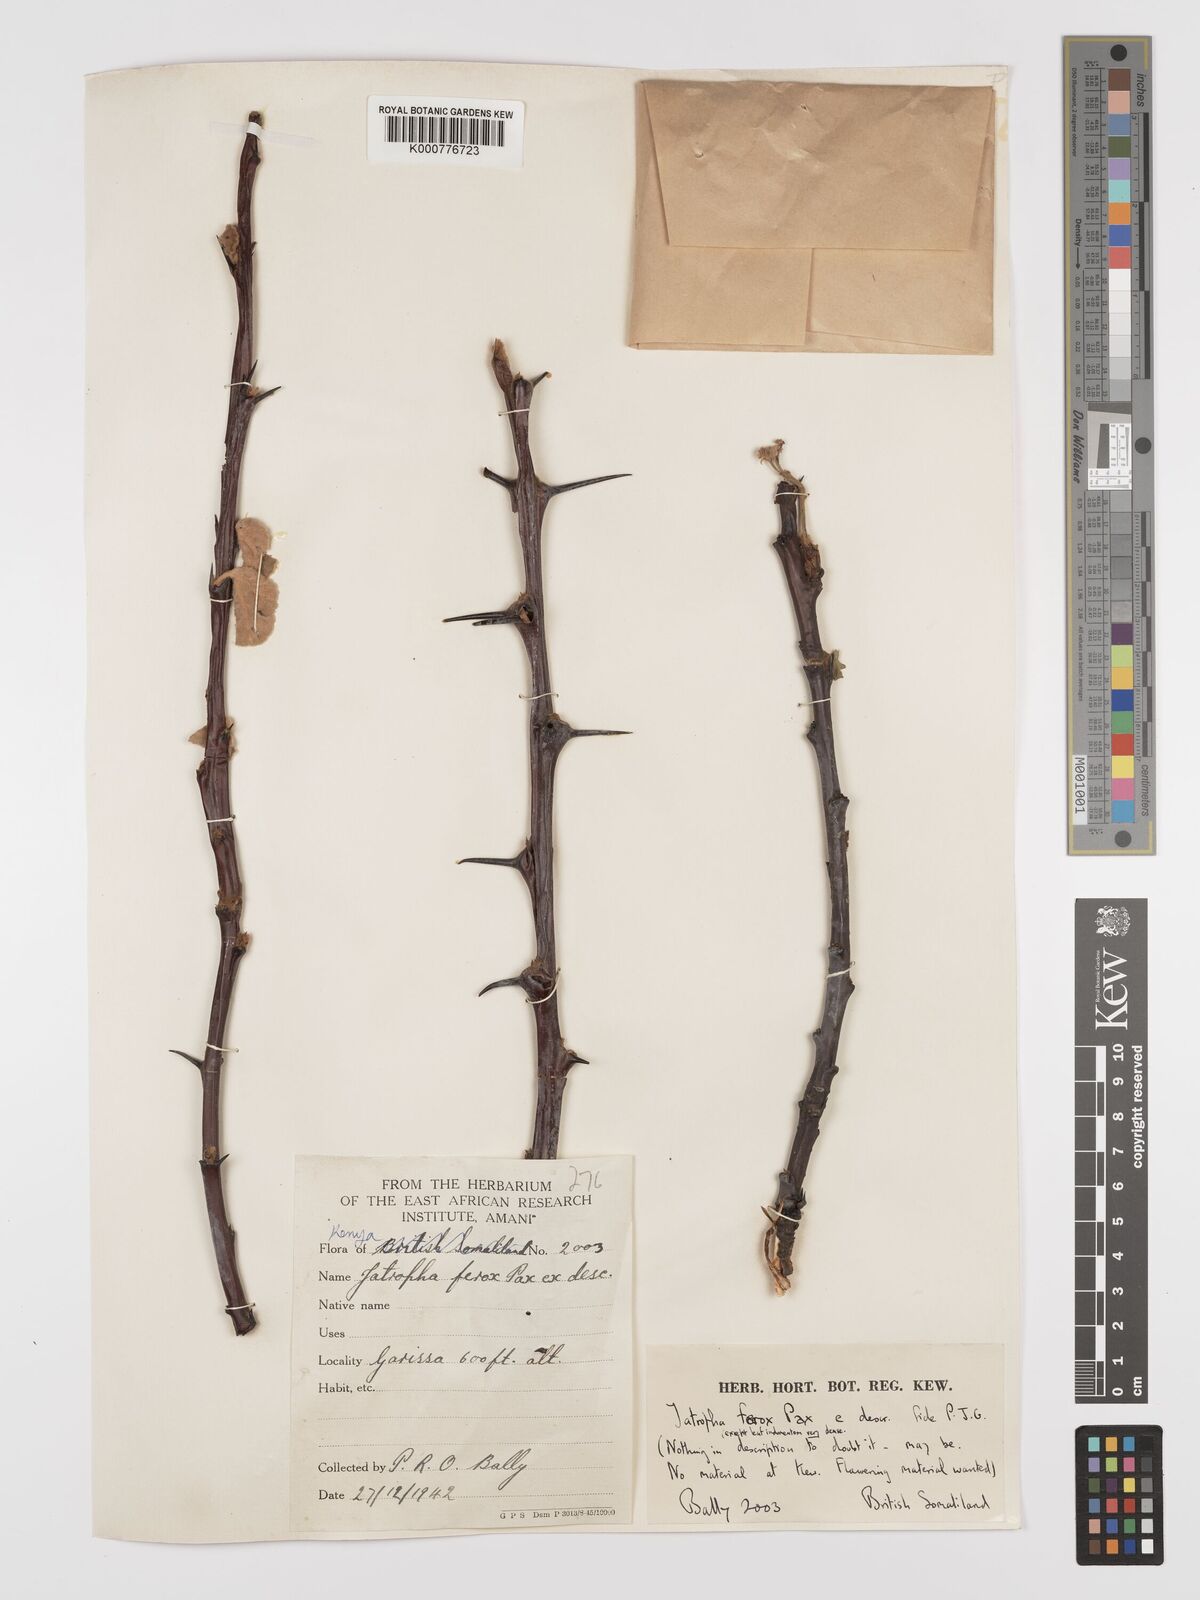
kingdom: Plantae
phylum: Tracheophyta
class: Magnoliopsida
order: Malpighiales
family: Euphorbiaceae
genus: Jatropha
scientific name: Jatropha dichtar
